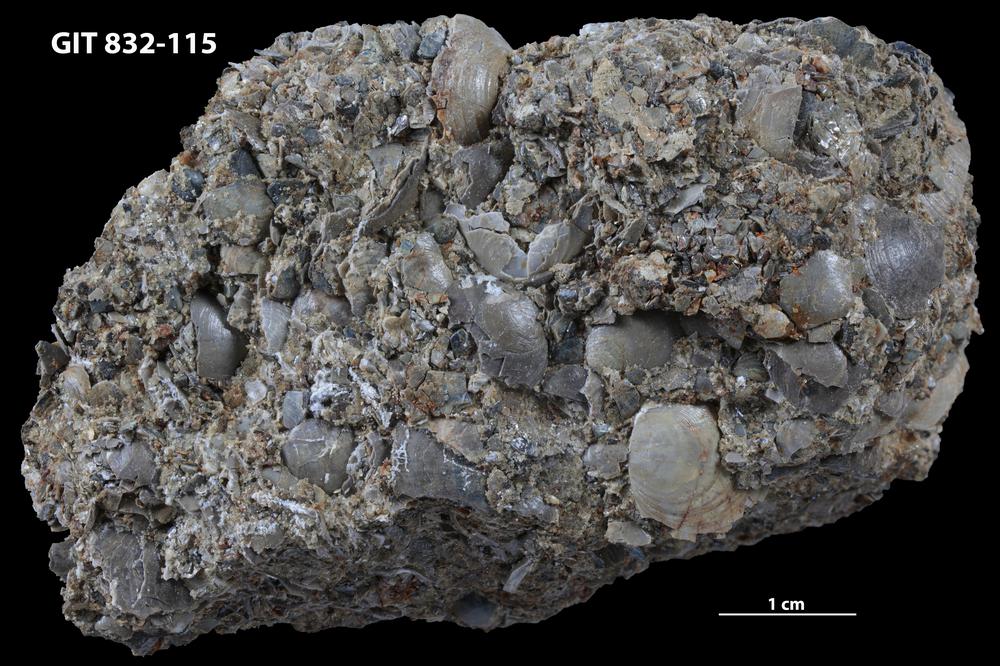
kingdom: Animalia
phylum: Brachiopoda
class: Lingulata
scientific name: Lingulata
